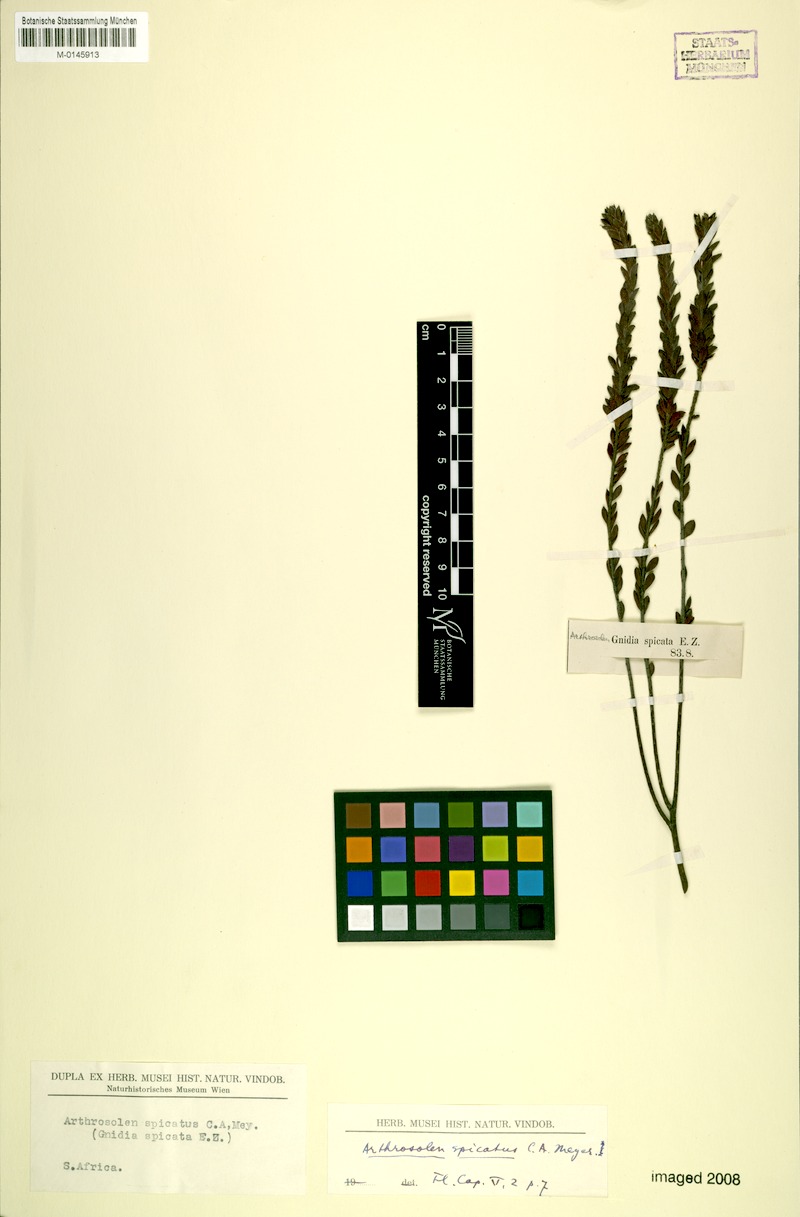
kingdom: Plantae
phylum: Tracheophyta
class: Magnoliopsida
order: Malvales
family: Thymelaeaceae
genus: Gnidia
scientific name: Gnidia spicata
